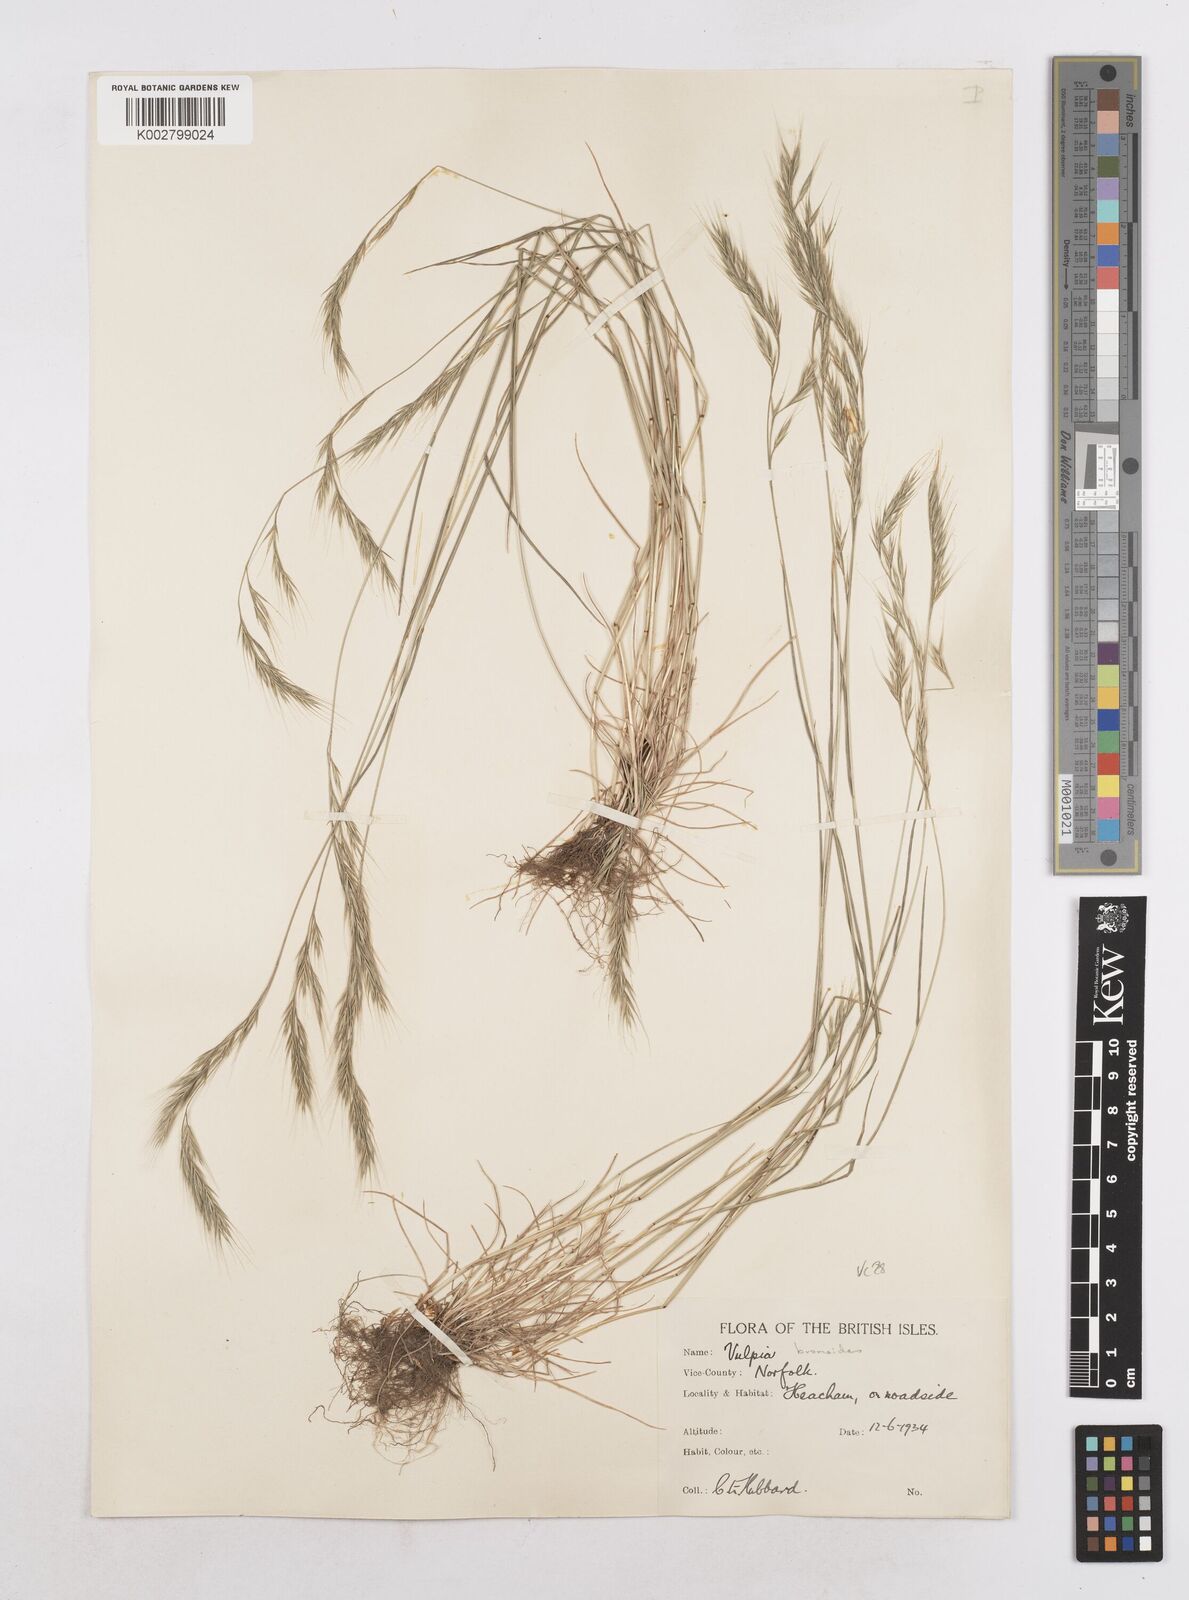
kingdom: Plantae
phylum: Tracheophyta
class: Liliopsida
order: Poales
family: Poaceae
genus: Festuca
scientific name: Festuca bromoides
